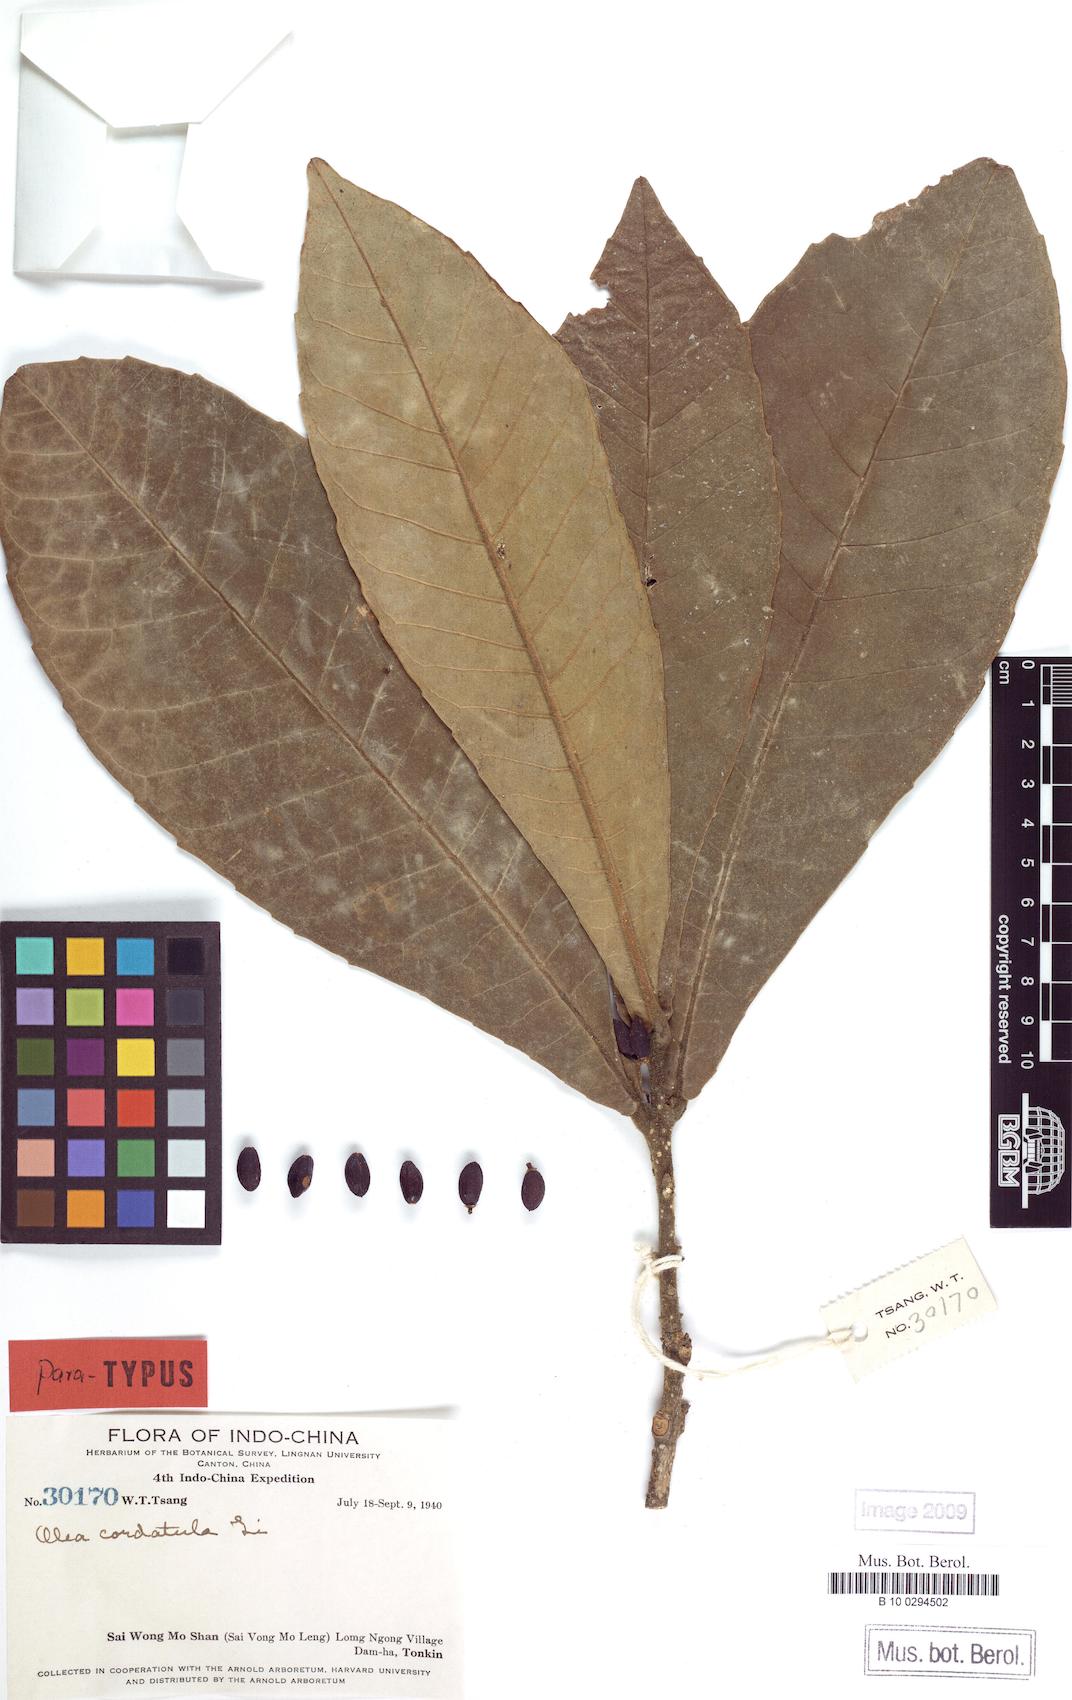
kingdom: Plantae
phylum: Tracheophyta
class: Magnoliopsida
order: Lamiales
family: Oleaceae
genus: Tetrapilus
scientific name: Tetrapilus cordatulus
